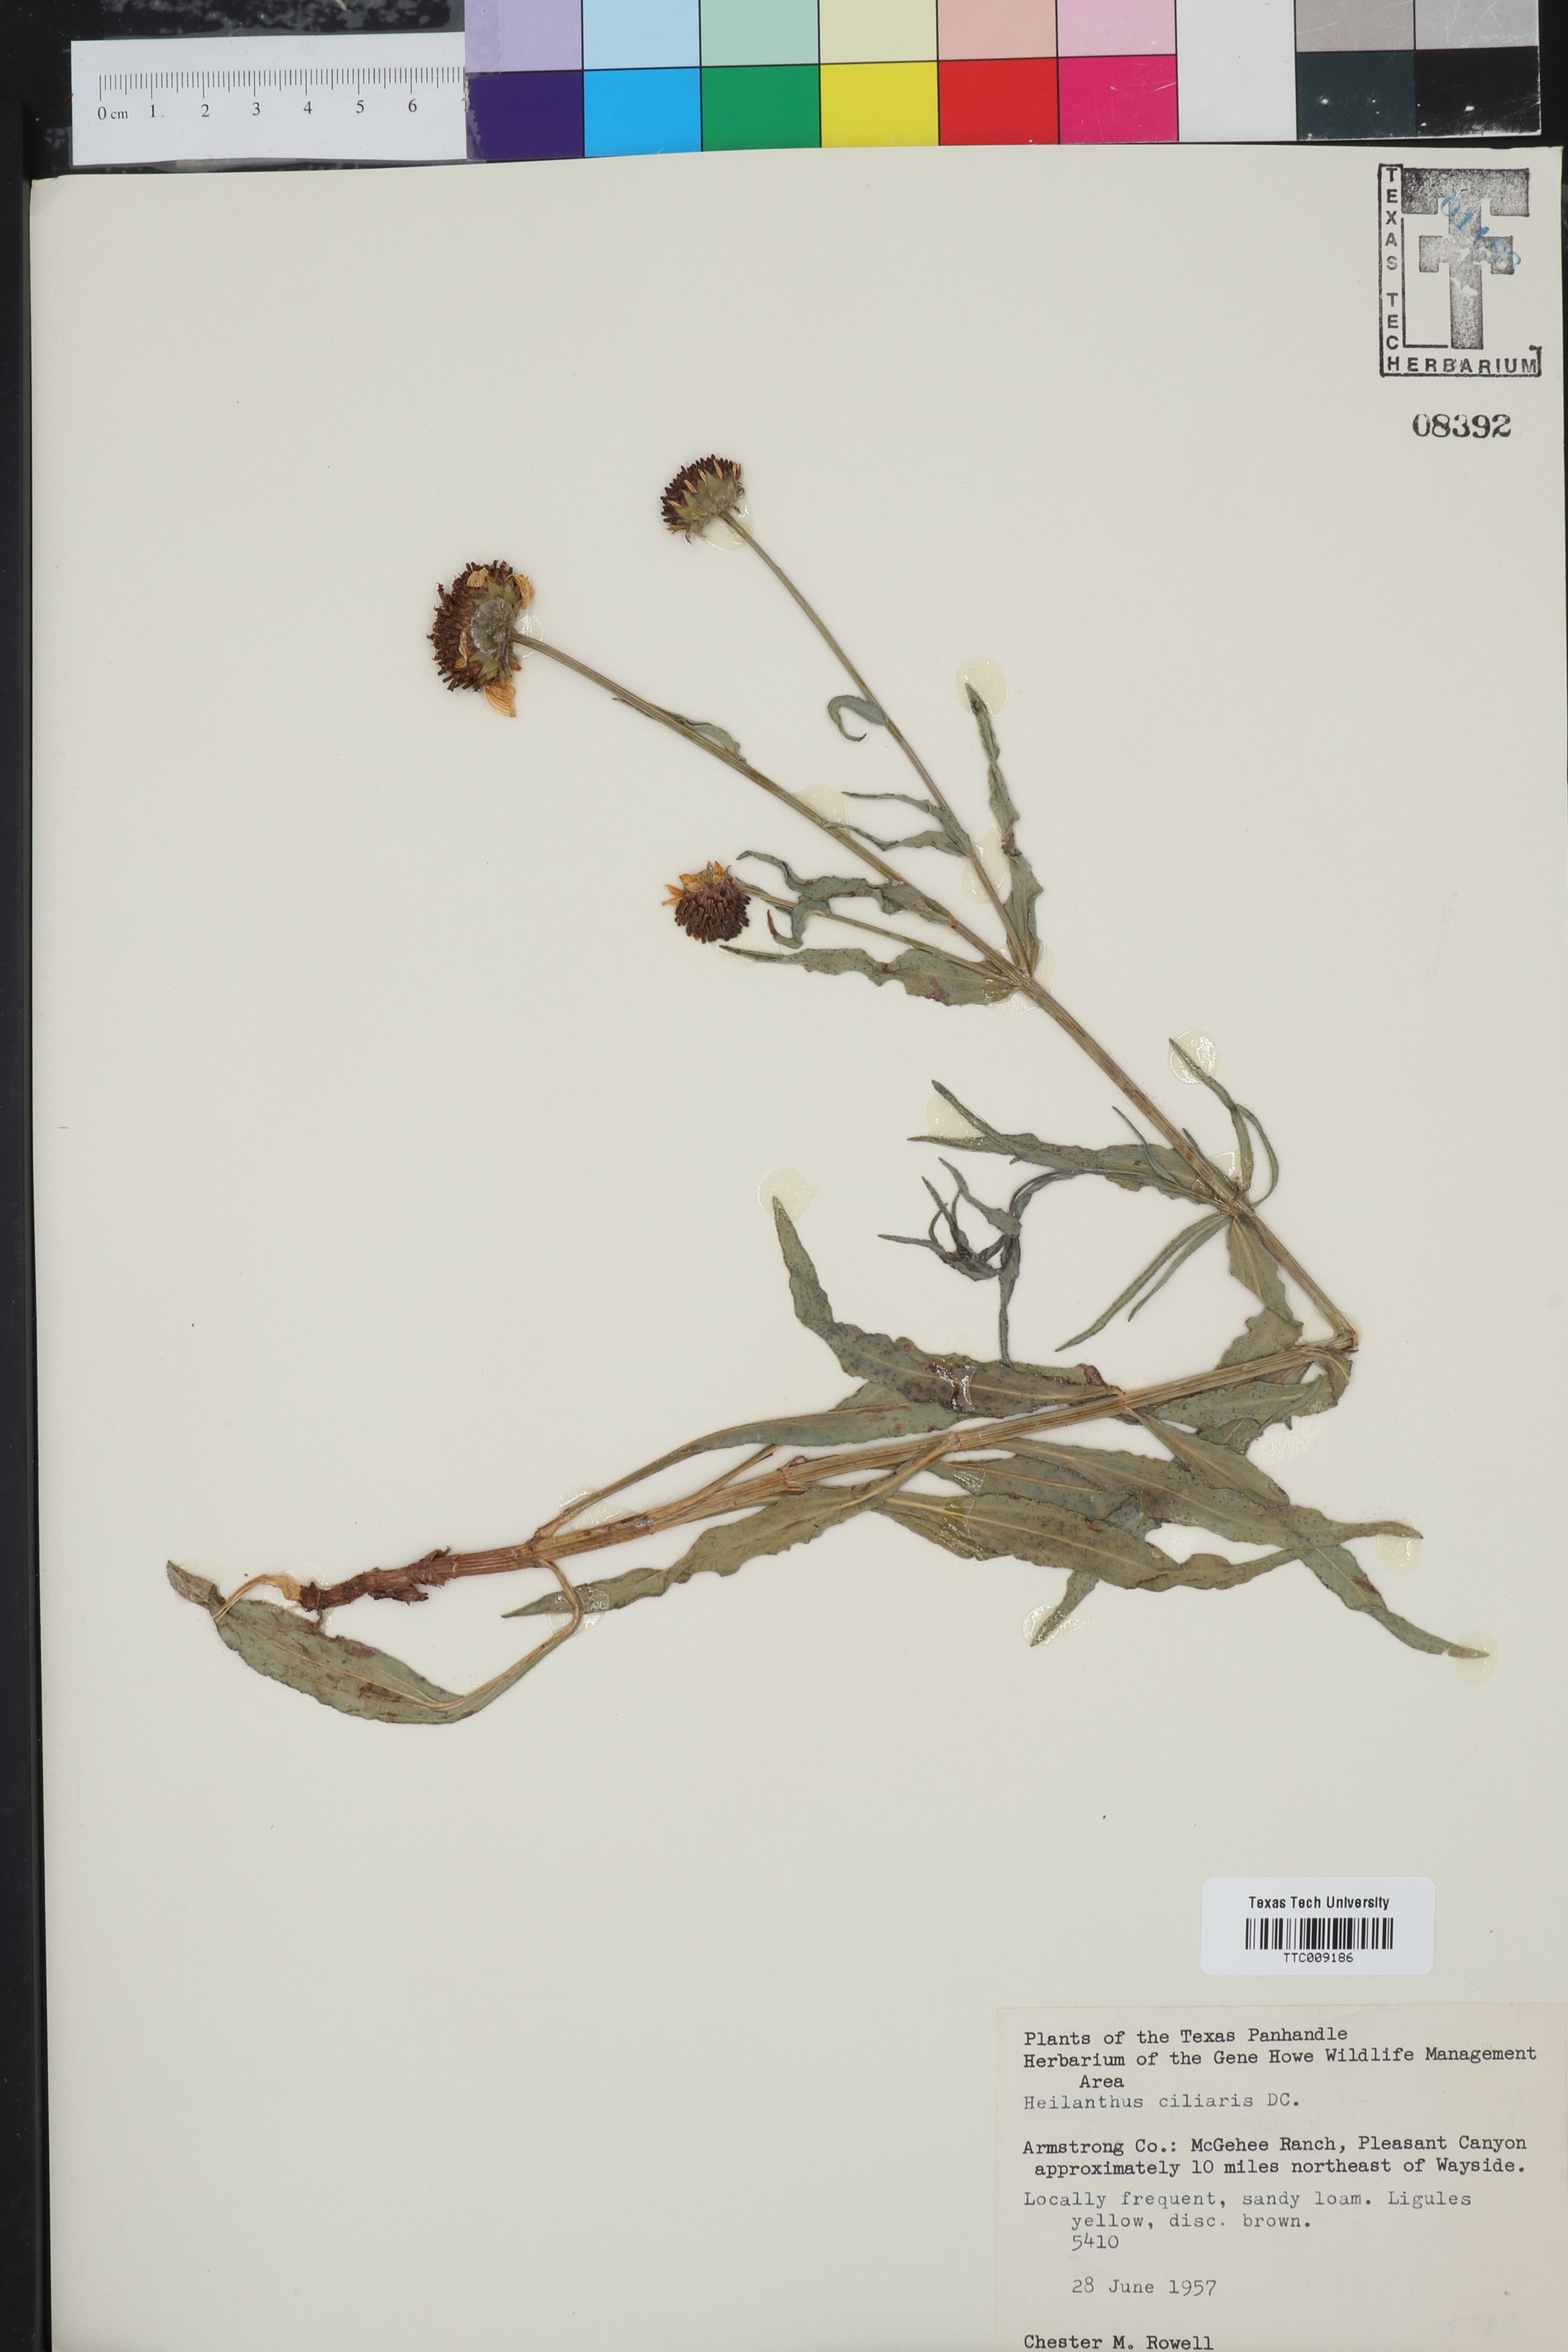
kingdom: Plantae
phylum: Tracheophyta
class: Magnoliopsida
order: Asterales
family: Asteraceae
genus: Helianthus
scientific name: Helianthus ciliaris
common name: Texas blueweed
